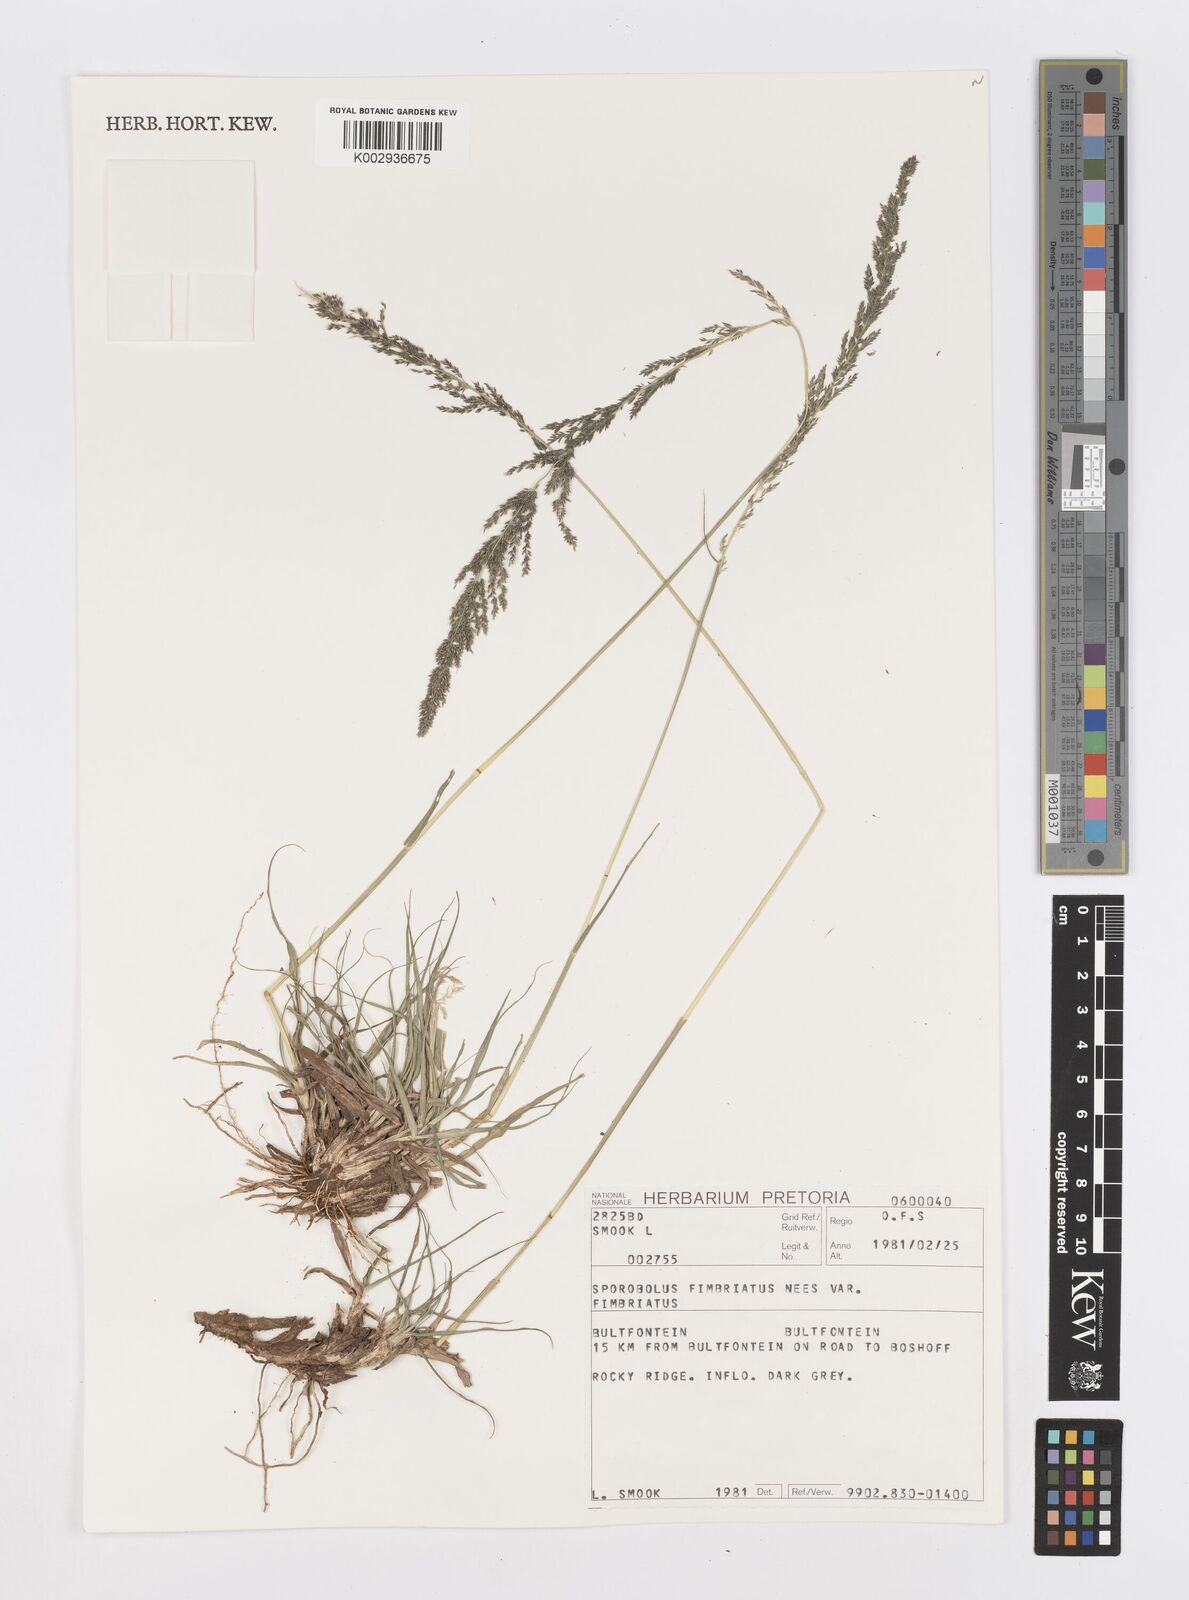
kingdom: Plantae
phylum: Tracheophyta
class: Liliopsida
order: Poales
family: Poaceae
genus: Sporobolus
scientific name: Sporobolus fimbriatus
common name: Fringed dropseed
